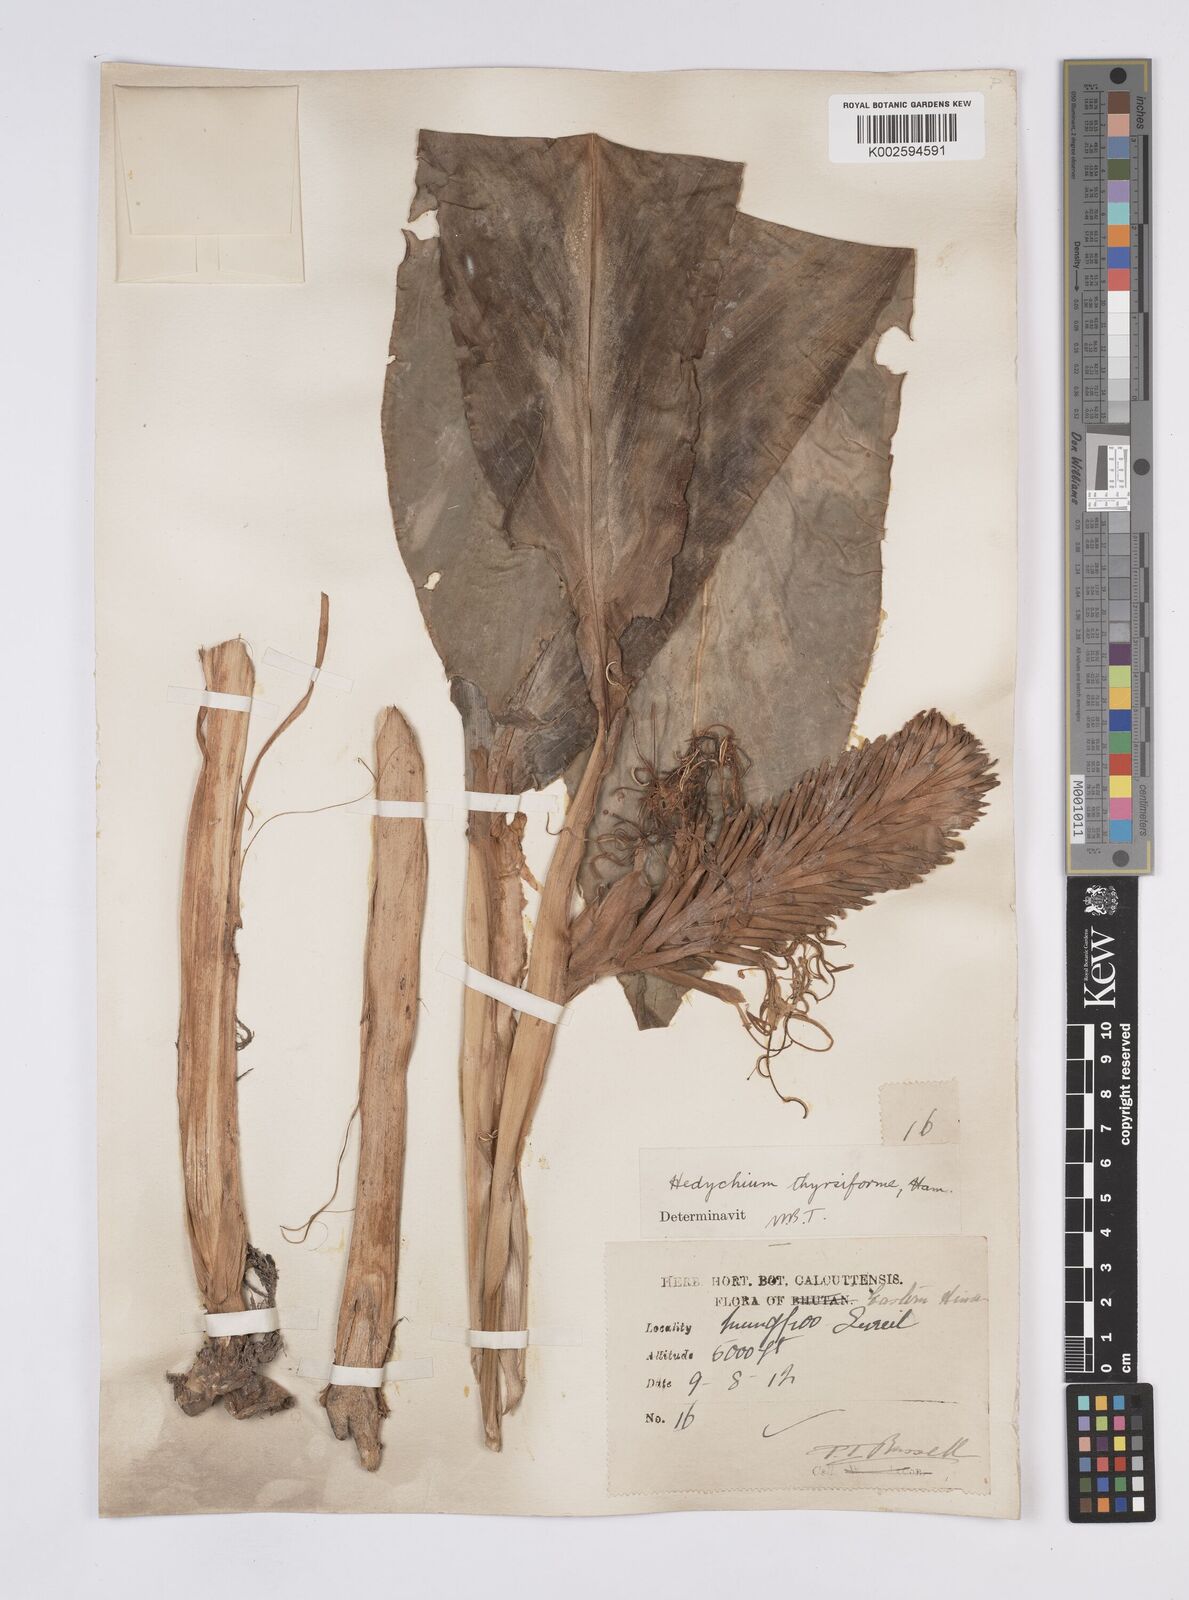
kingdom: Plantae
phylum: Tracheophyta
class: Liliopsida
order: Zingiberales
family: Zingiberaceae
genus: Hedychium
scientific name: Hedychium thyrsiforme
